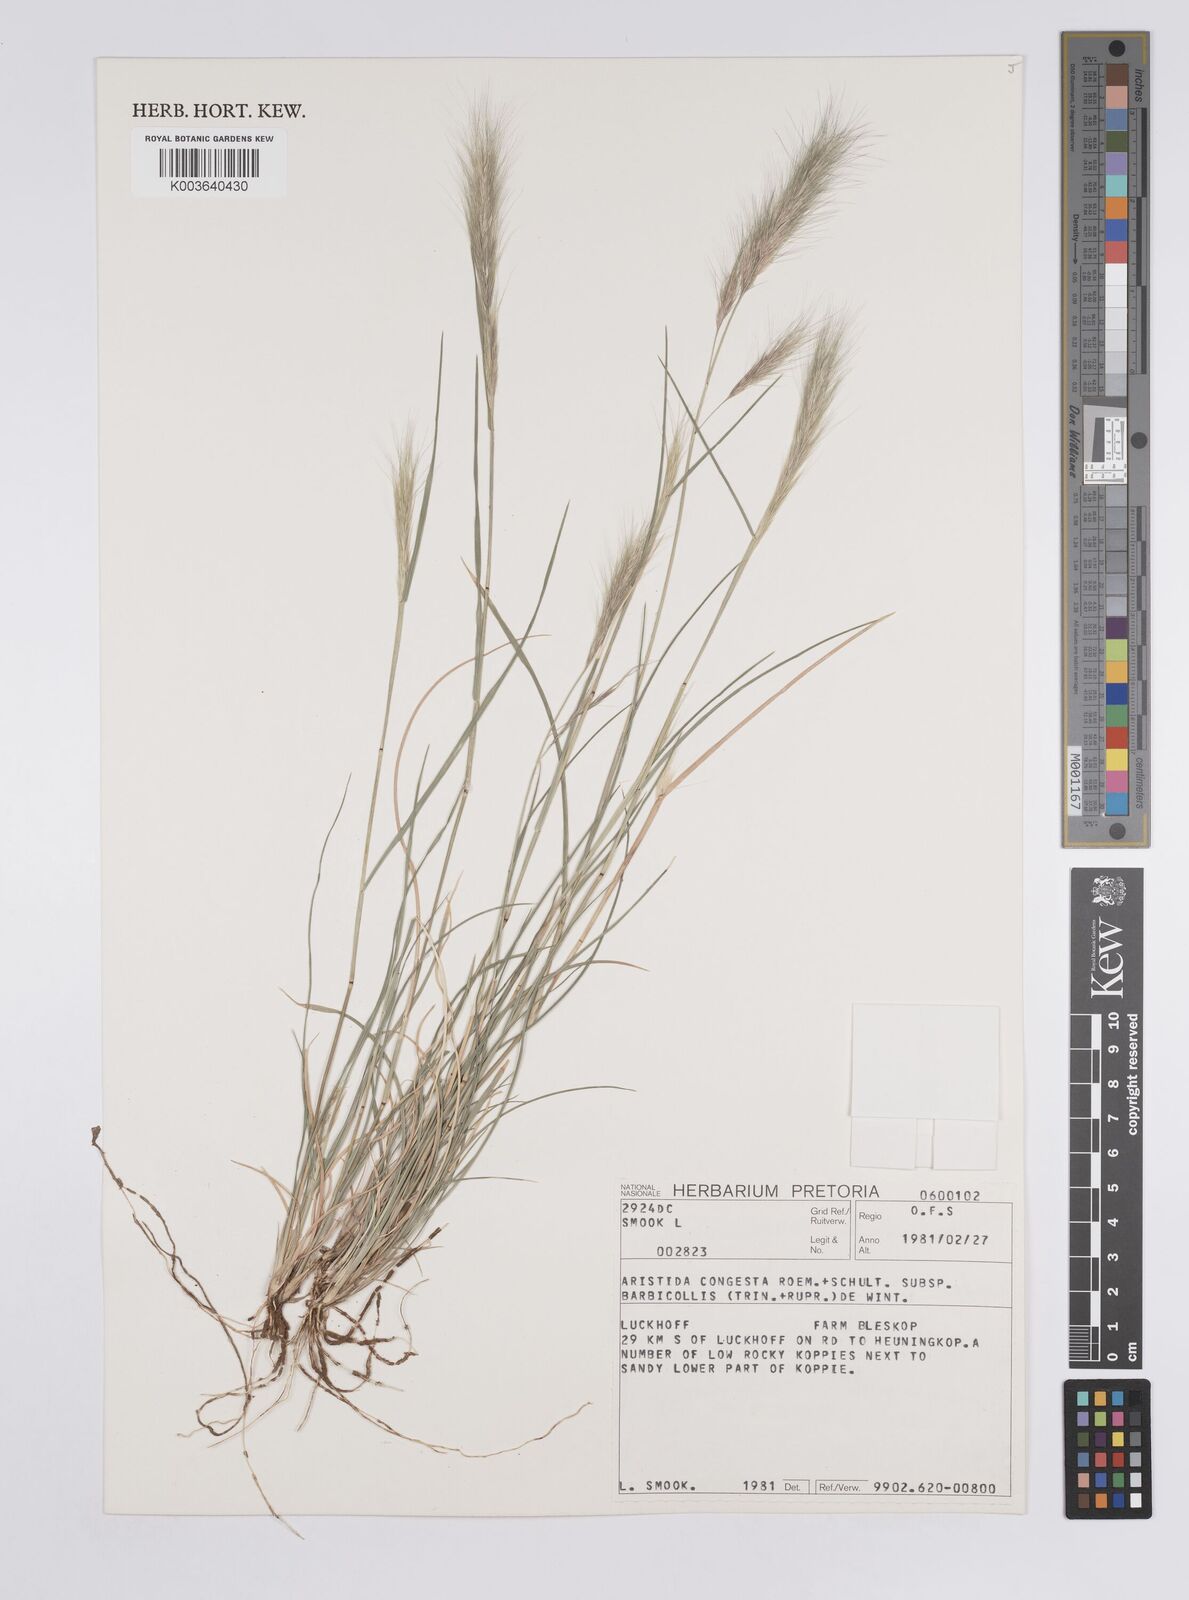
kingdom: Plantae
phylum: Tracheophyta
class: Liliopsida
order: Poales
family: Poaceae
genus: Aristida
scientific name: Aristida barbicollis
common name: Spreading prickle grass
